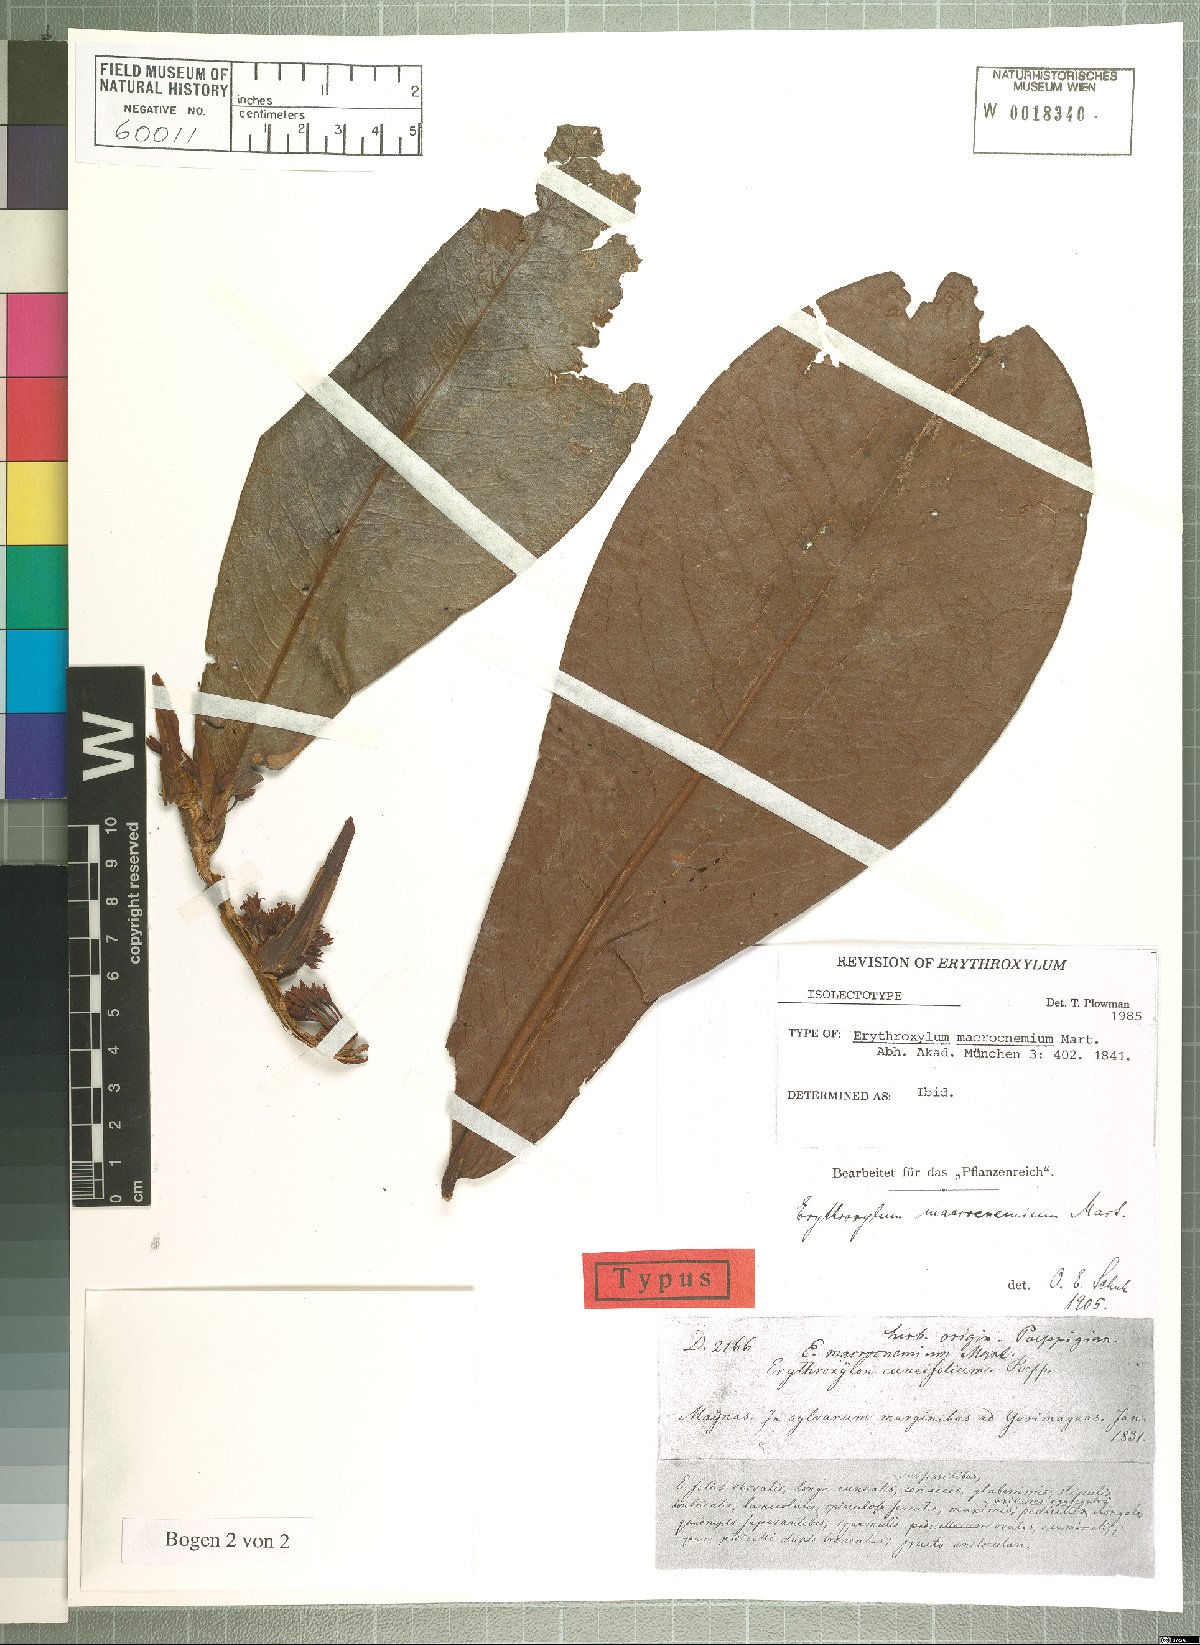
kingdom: Plantae
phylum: Tracheophyta
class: Magnoliopsida
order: Malpighiales
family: Erythroxylaceae
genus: Erythroxylum
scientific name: Erythroxylum macrophyllum
